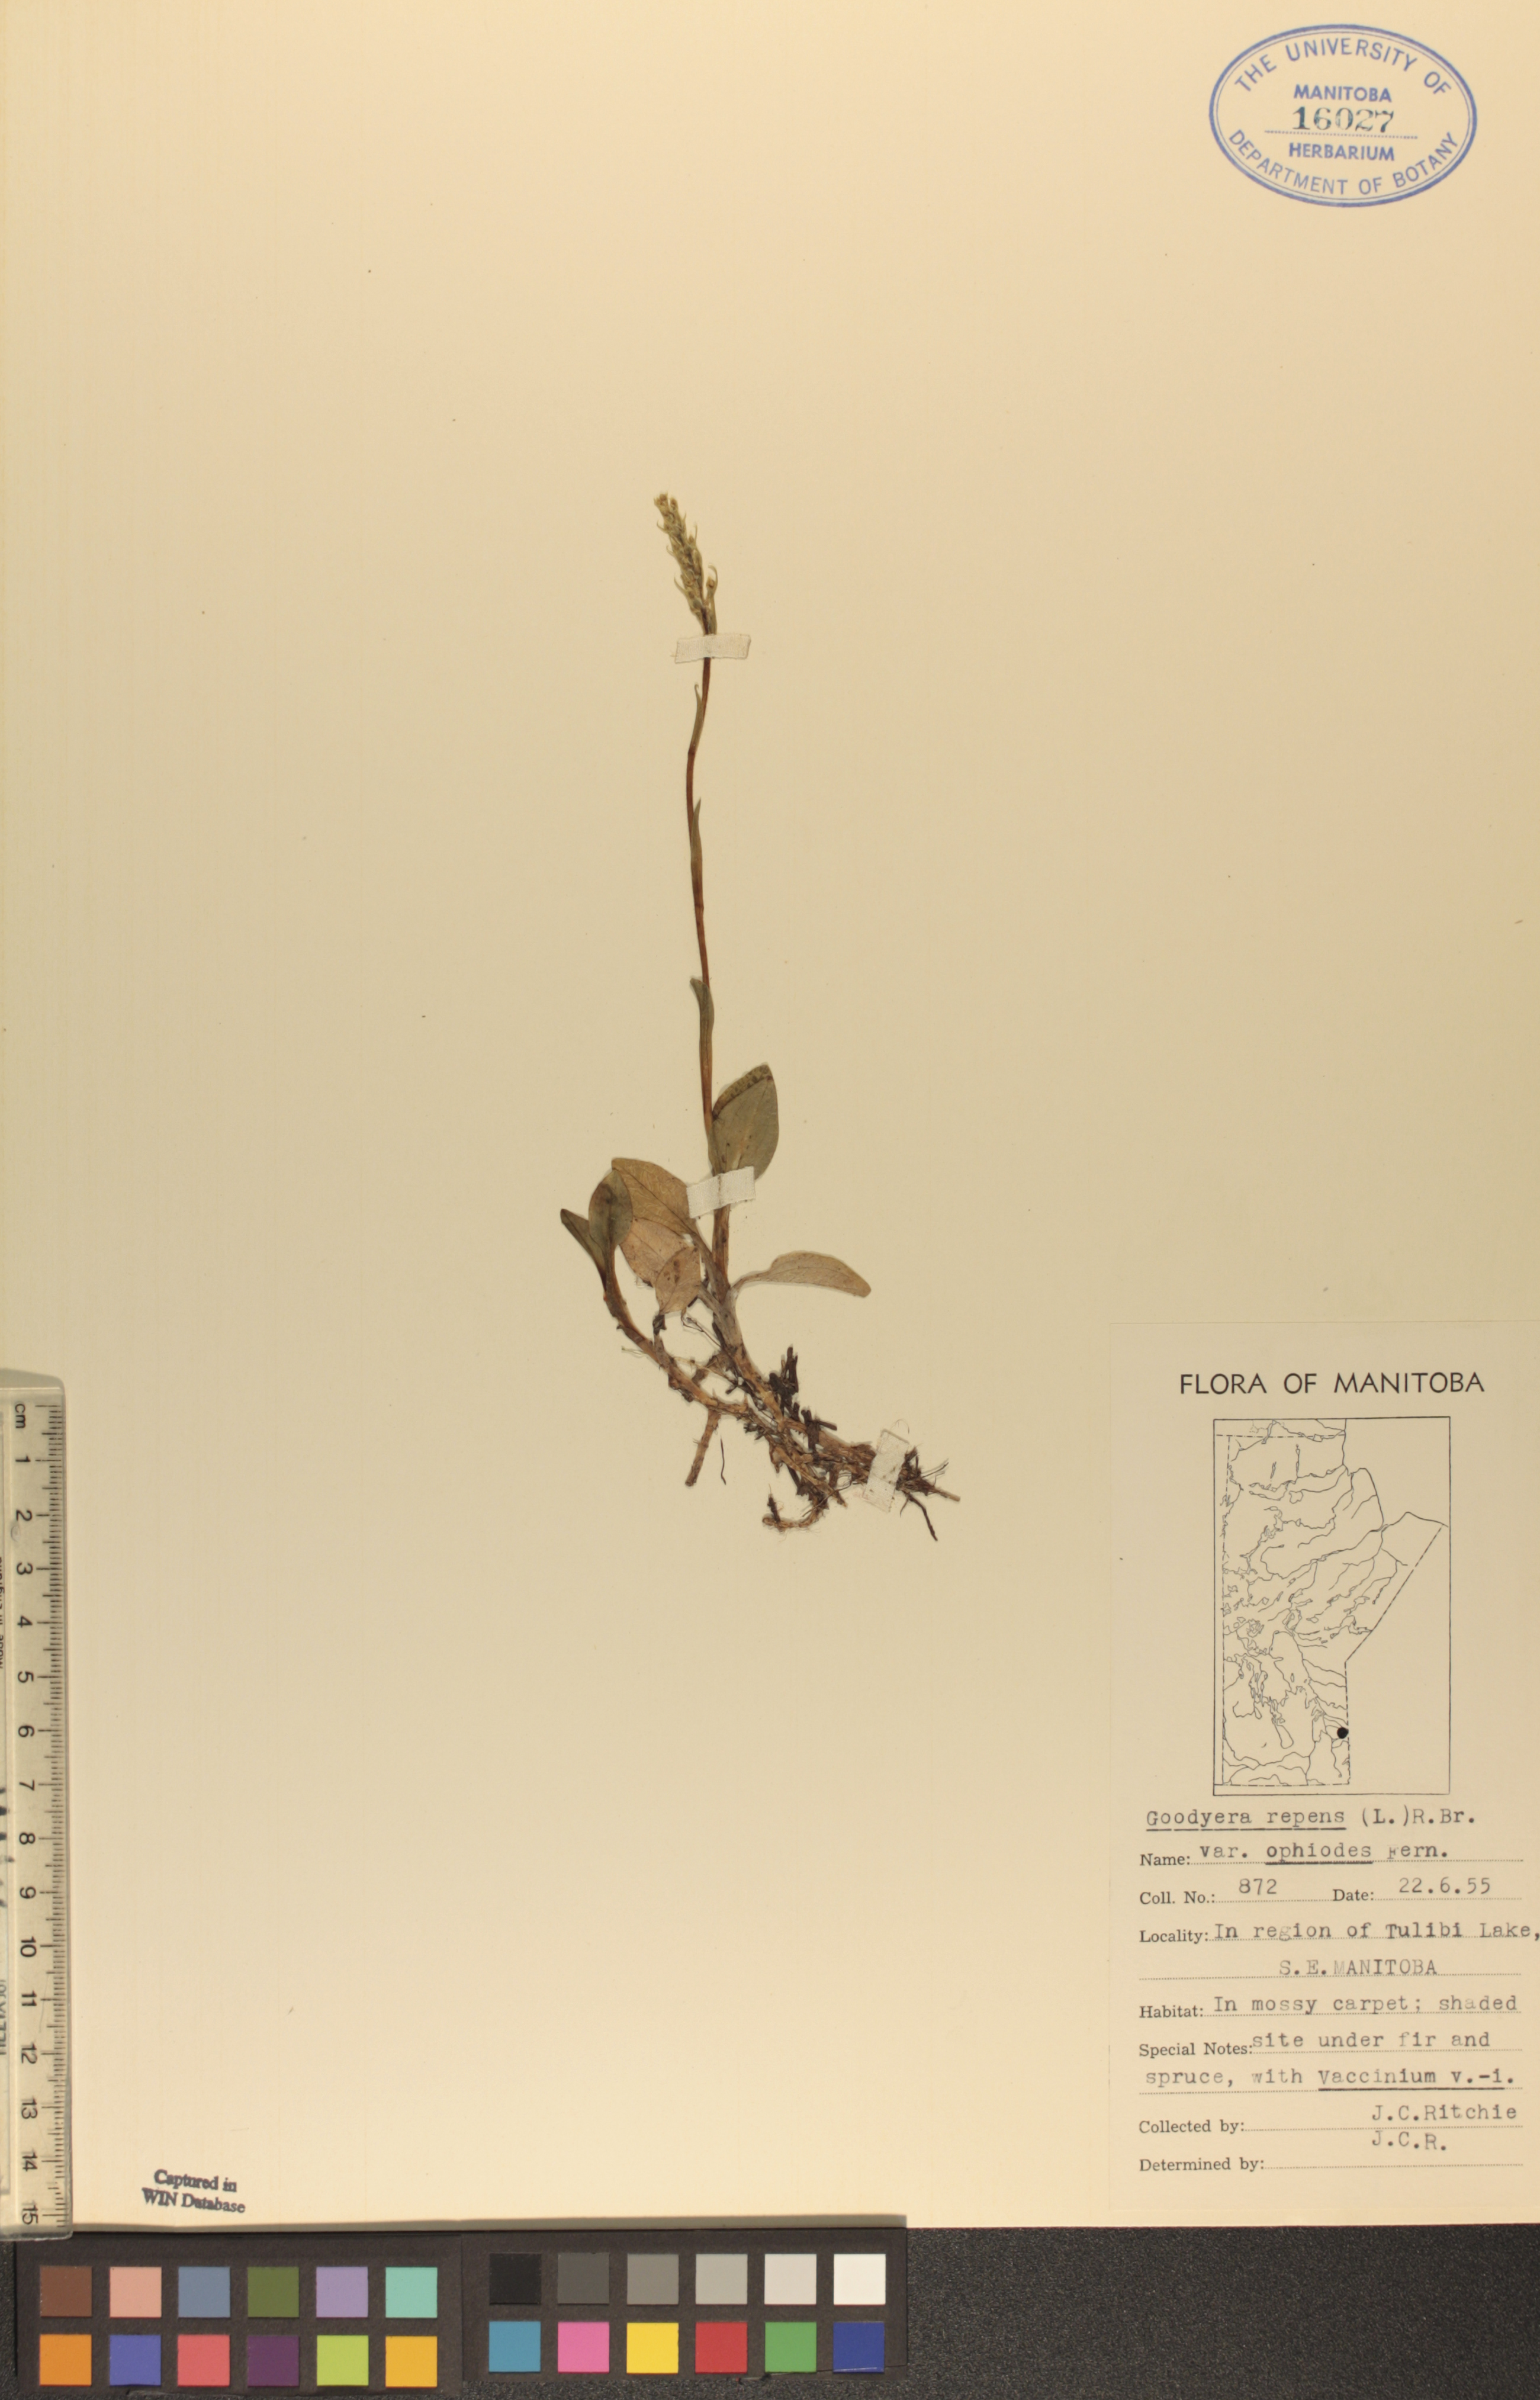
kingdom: Plantae
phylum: Tracheophyta
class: Liliopsida
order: Asparagales
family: Orchidaceae
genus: Goodyera
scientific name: Goodyera repens
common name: Creeping lady's-tresses
